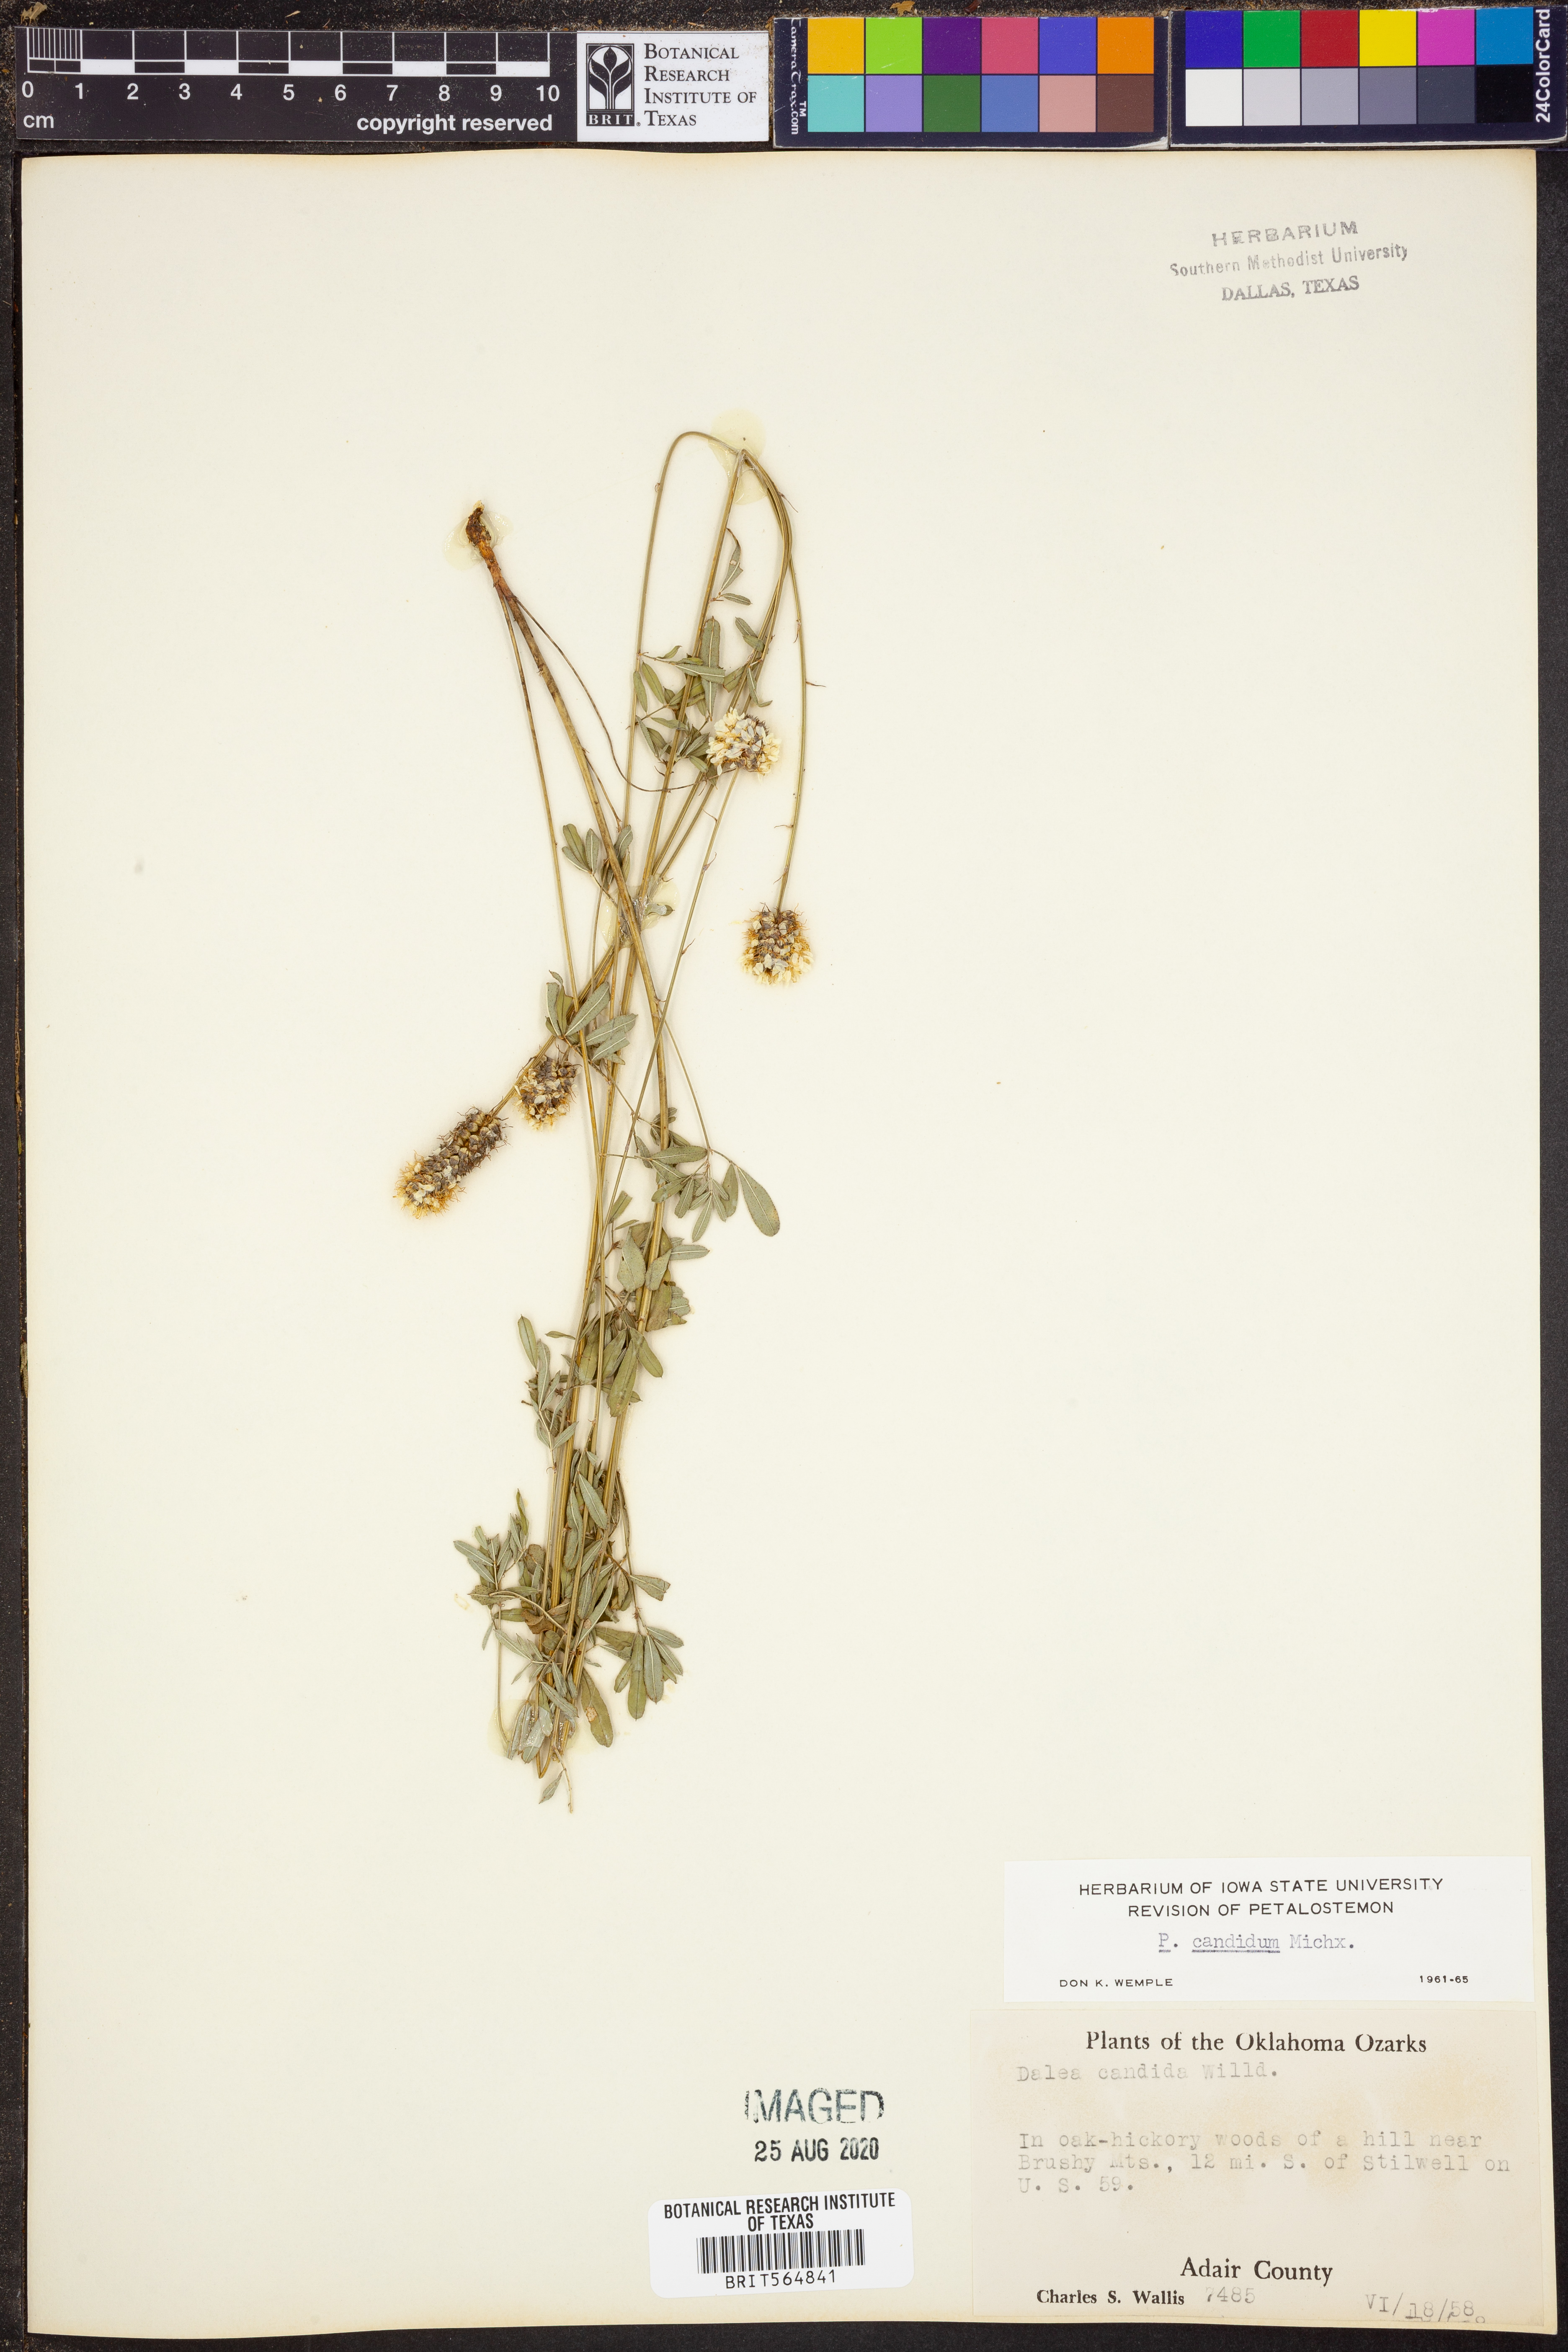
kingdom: Plantae
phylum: Tracheophyta
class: Magnoliopsida
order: Fabales
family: Fabaceae
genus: Dalea
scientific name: Dalea candida
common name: White prairie-clover
